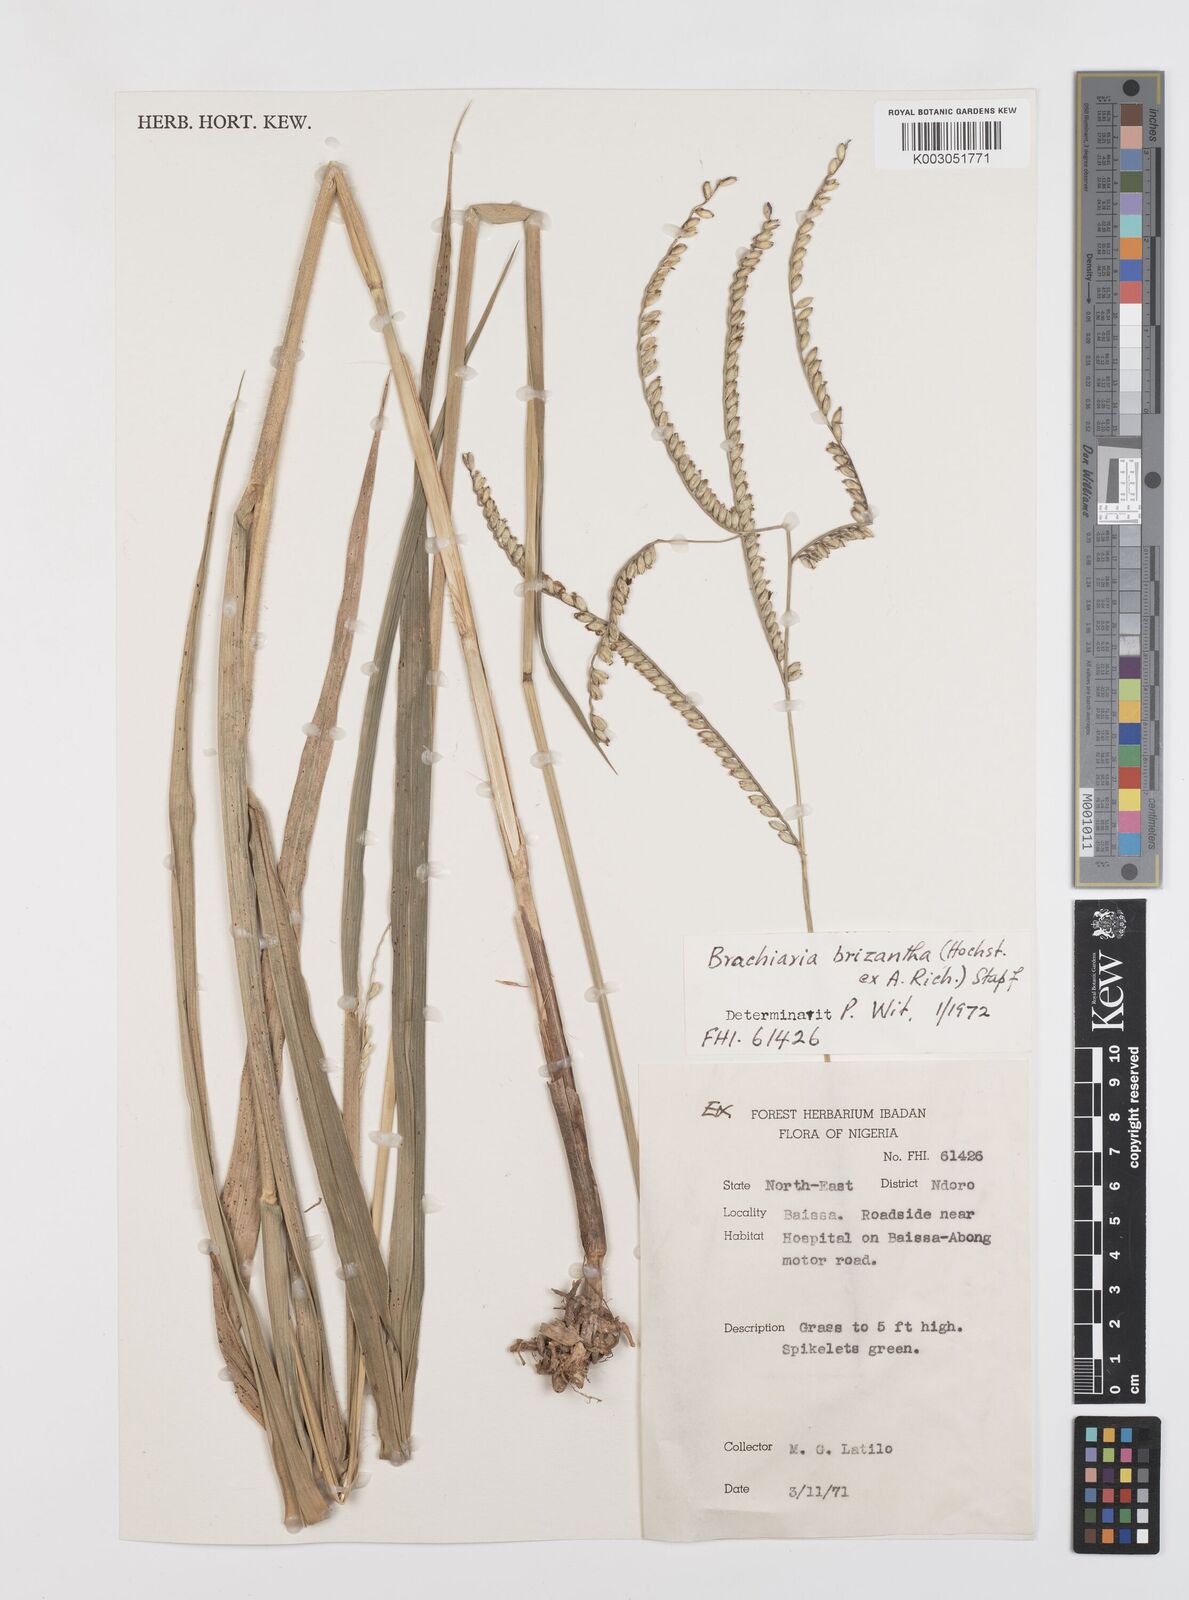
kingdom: Plantae
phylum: Tracheophyta
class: Liliopsida
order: Poales
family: Poaceae
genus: Urochloa
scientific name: Urochloa brizantha
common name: Palisade signalgrass
